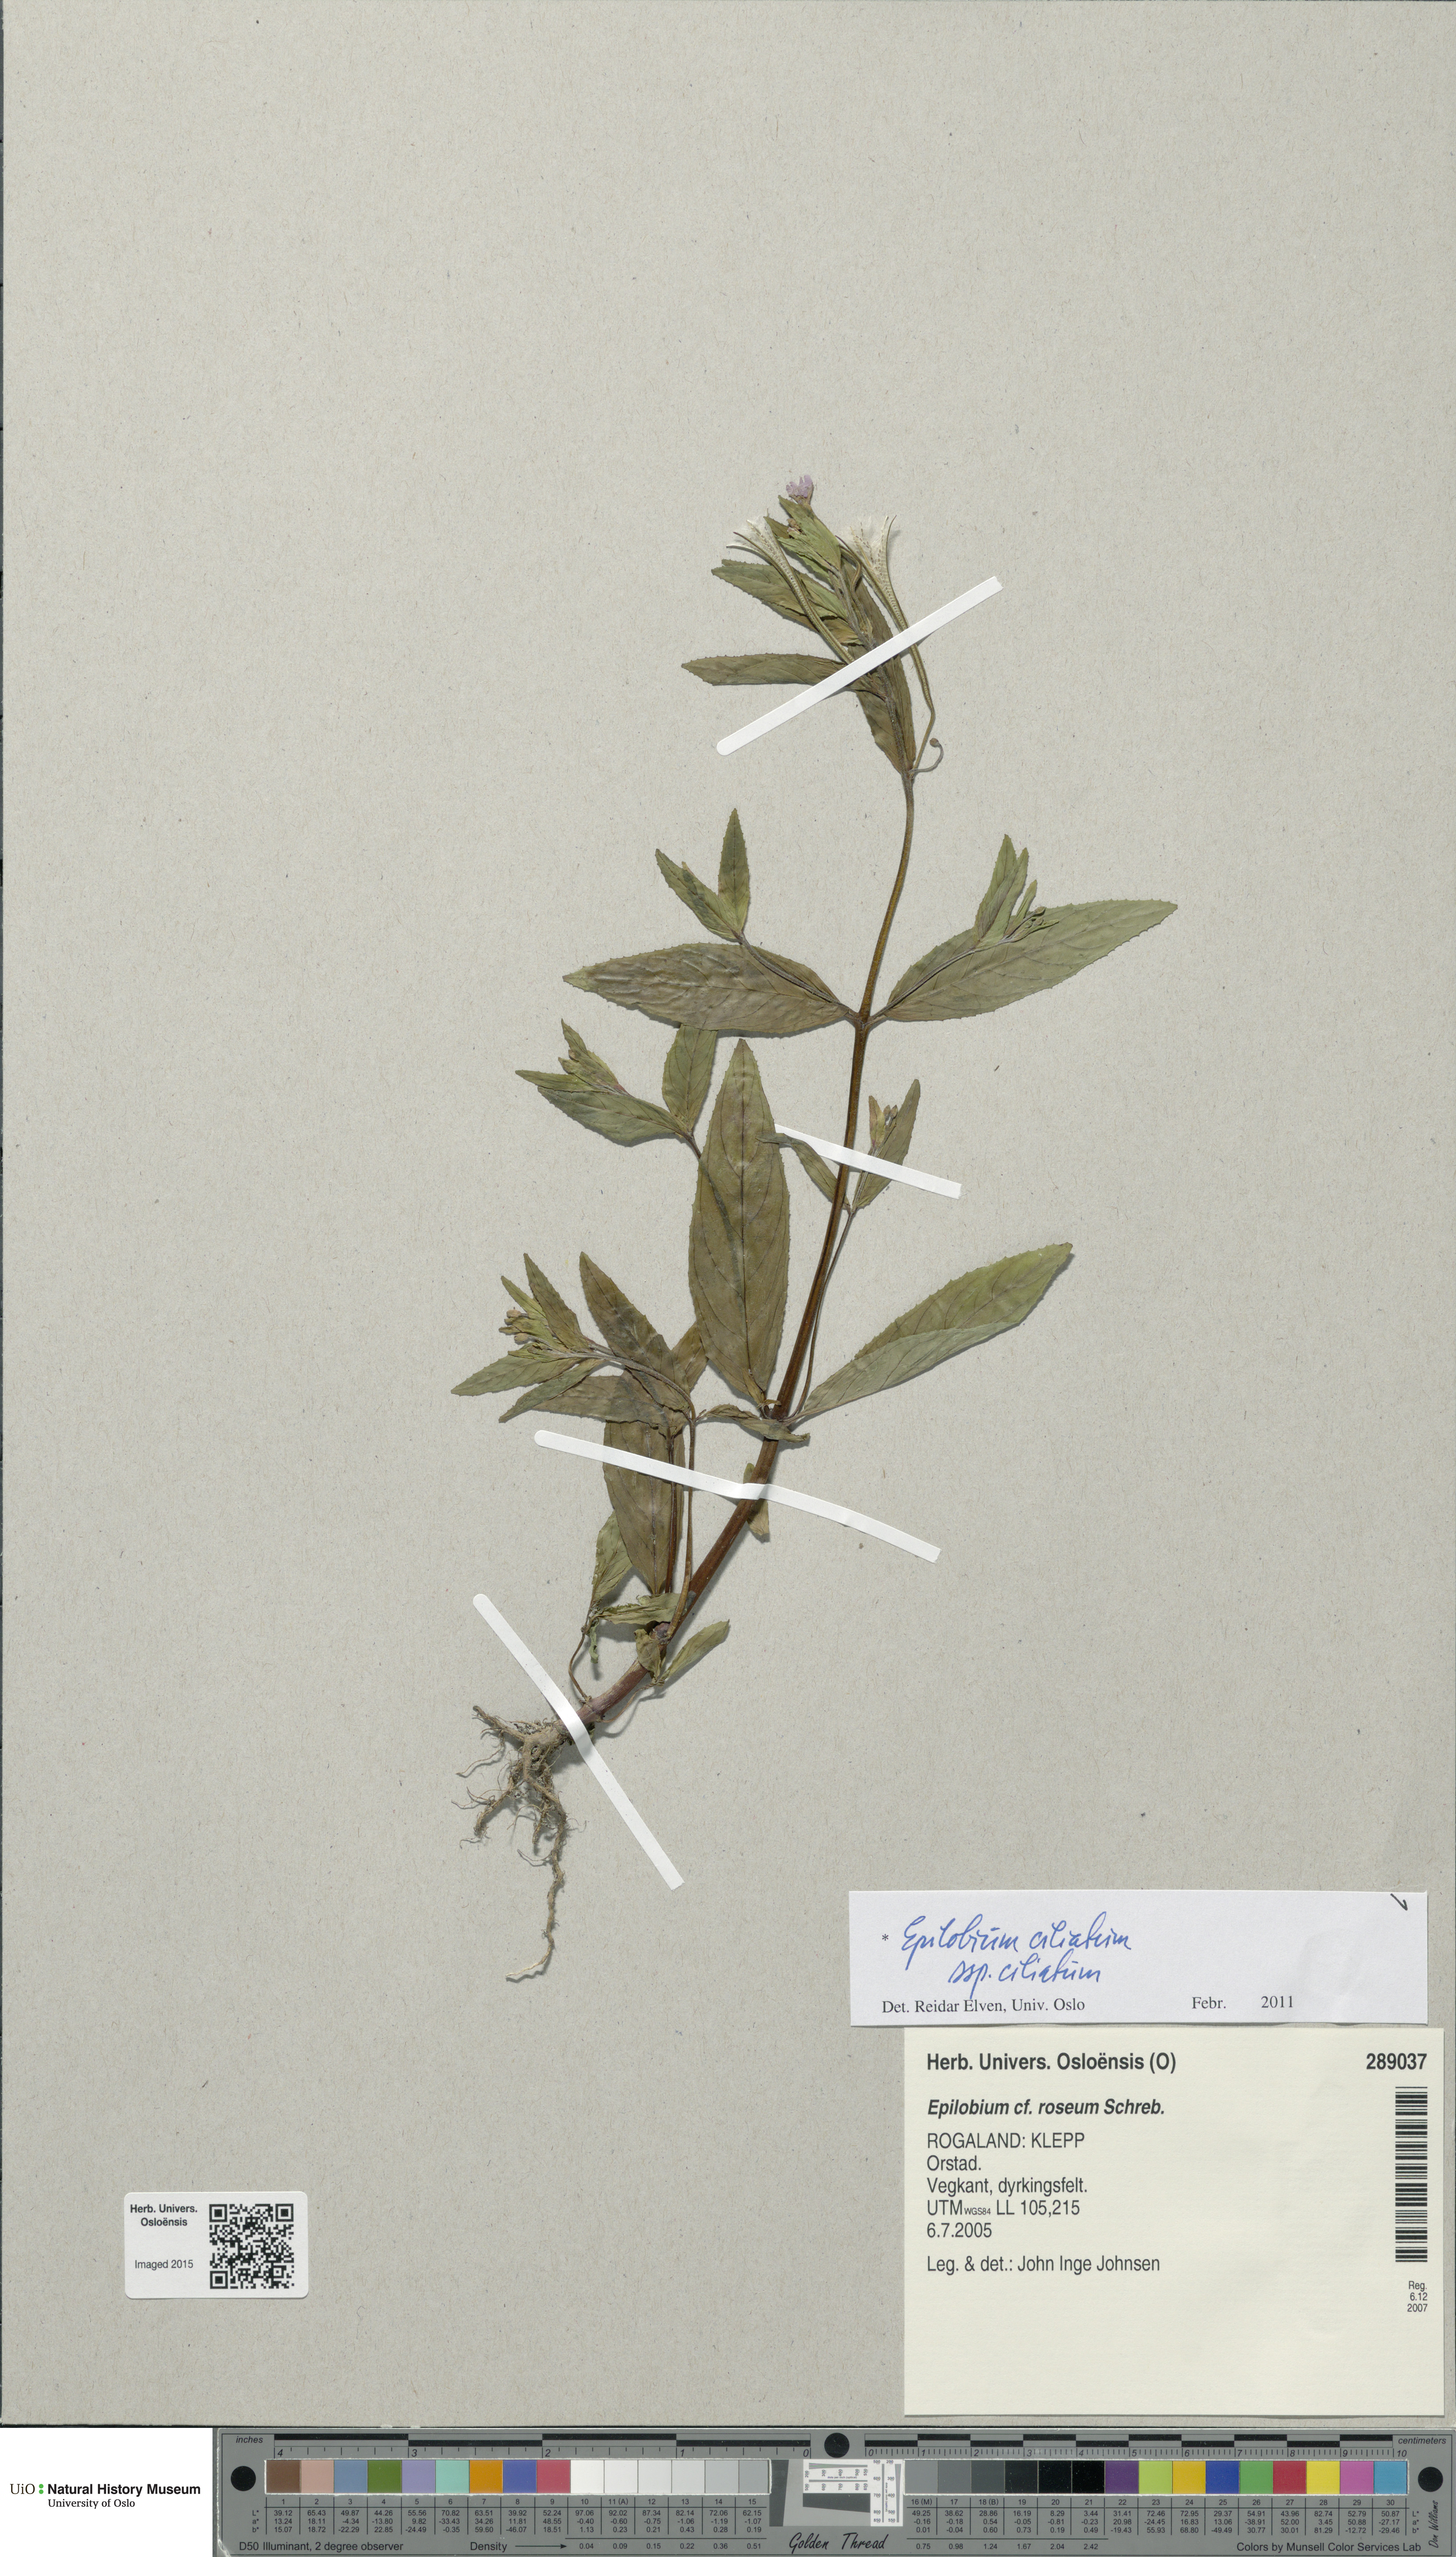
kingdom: Plantae
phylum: Tracheophyta
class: Magnoliopsida
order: Myrtales
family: Onagraceae
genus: Epilobium
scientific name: Epilobium ciliatum
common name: American willowherb
